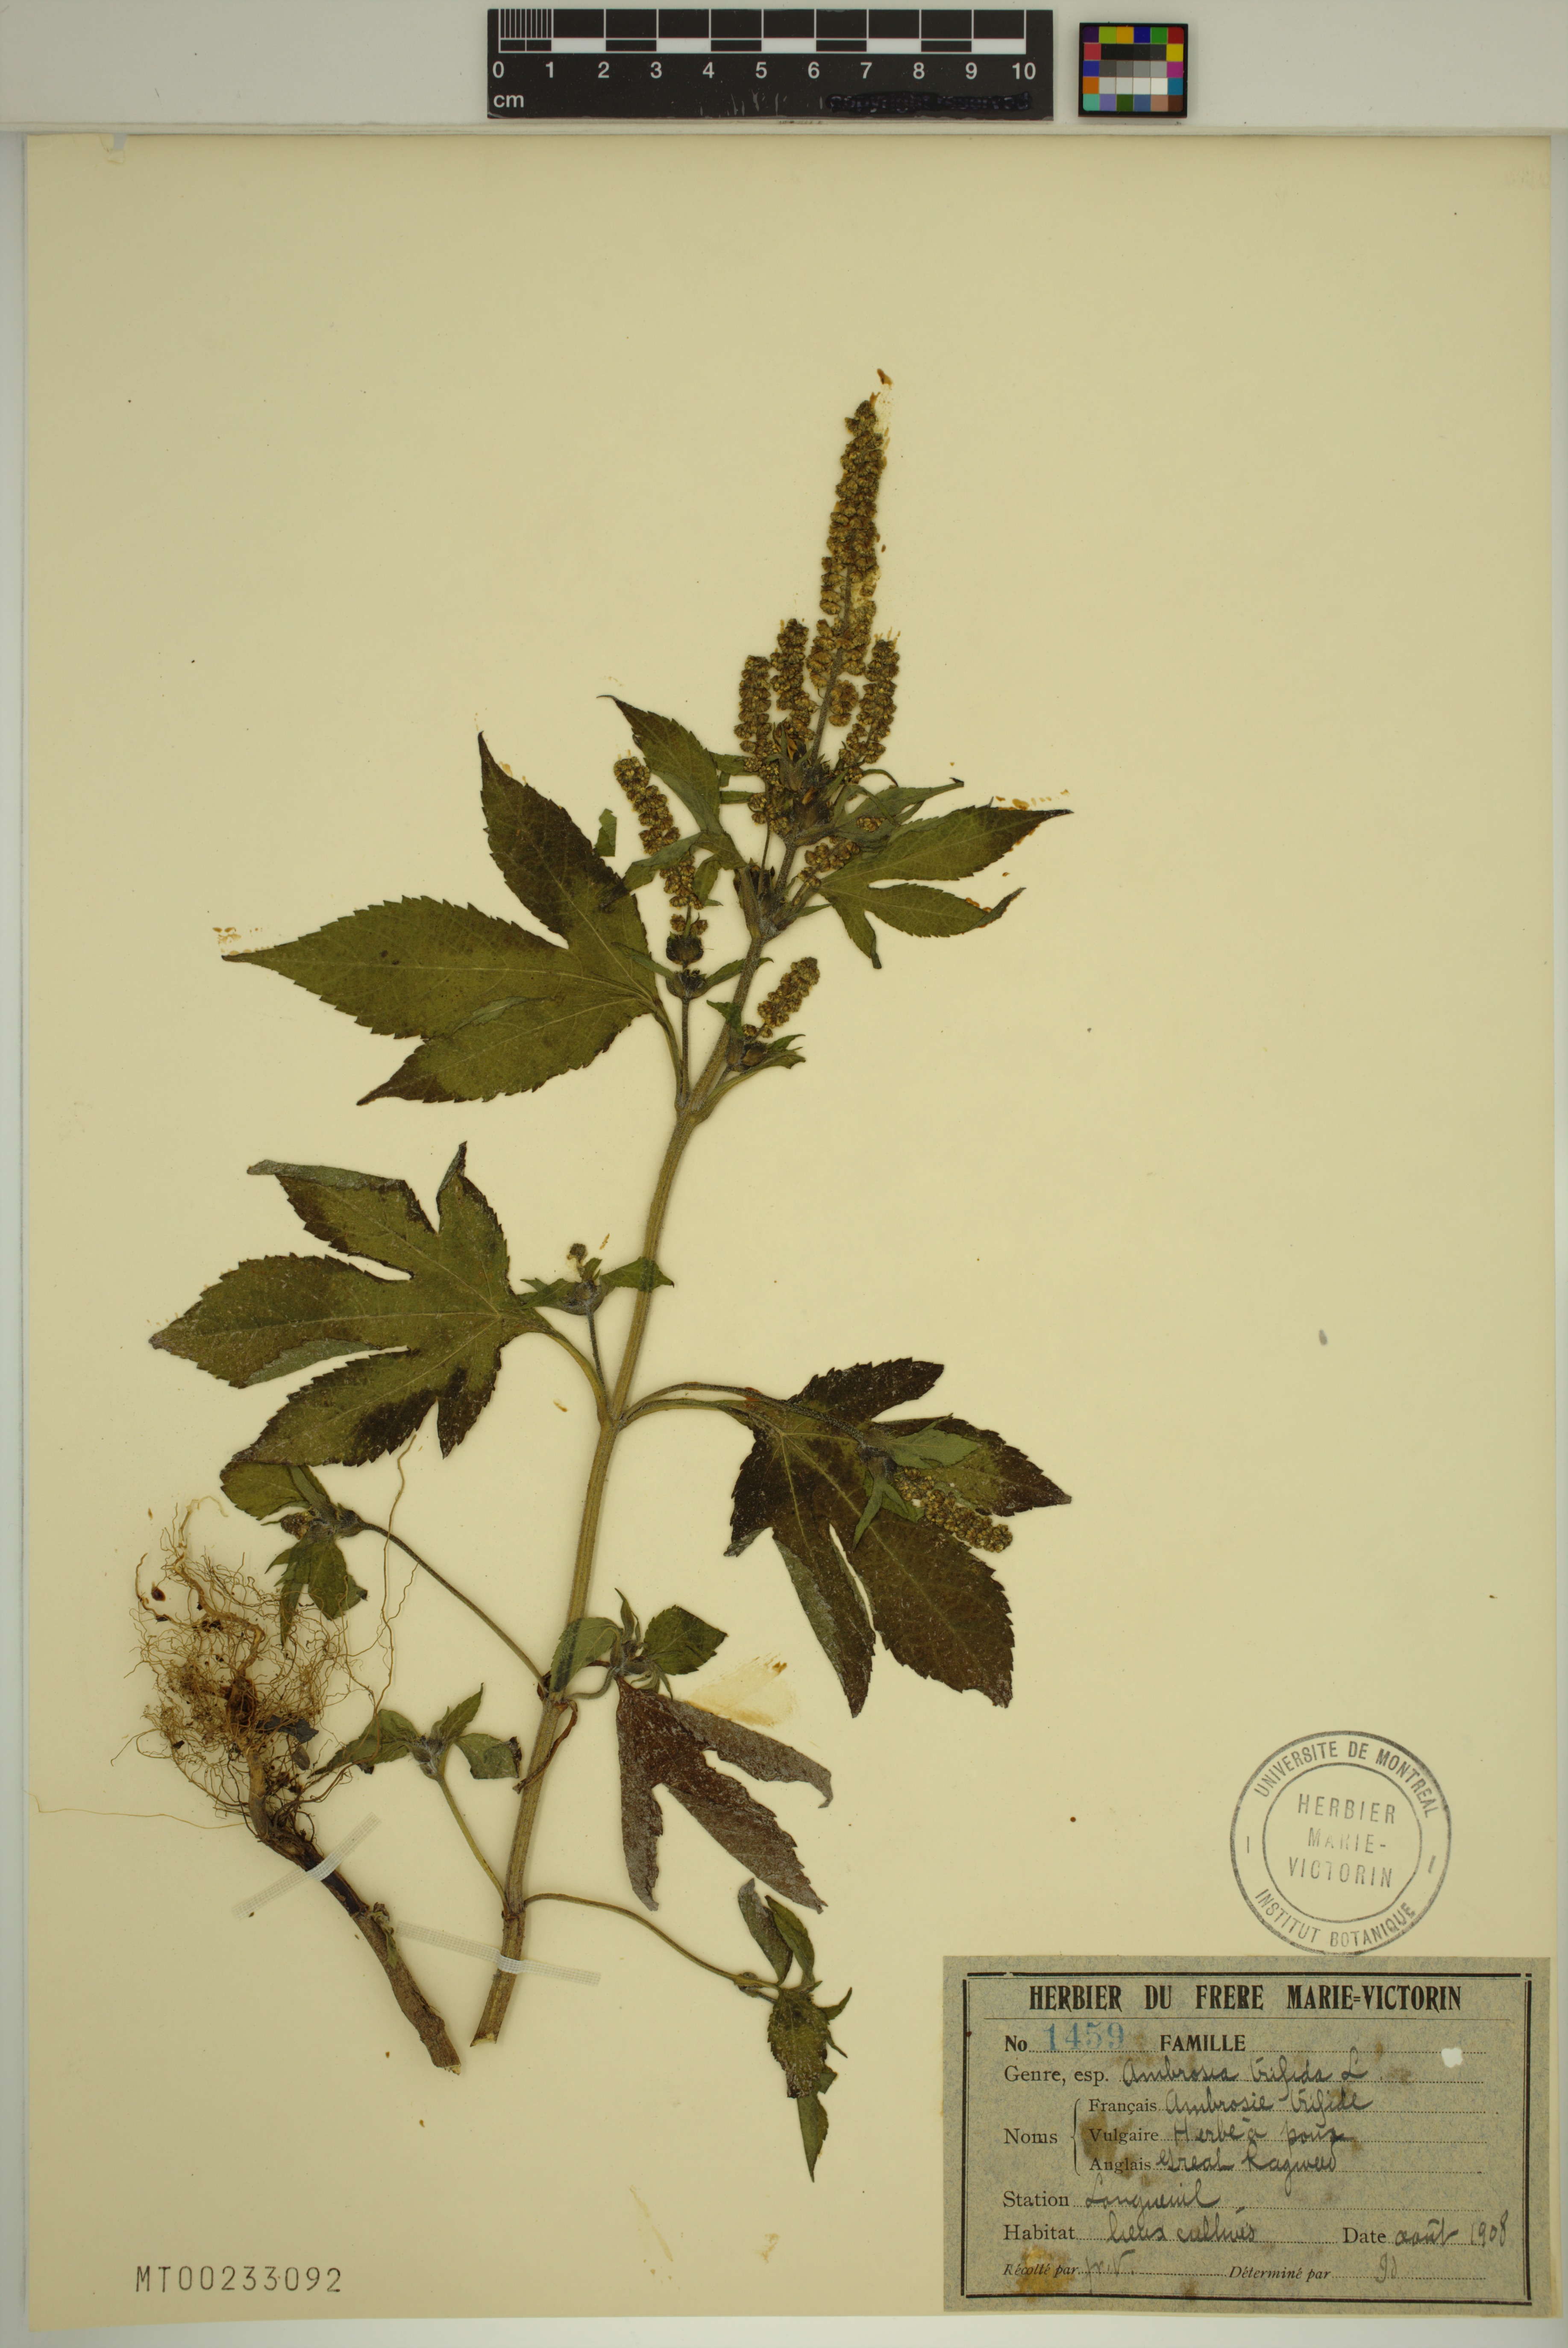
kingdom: Plantae
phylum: Tracheophyta
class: Magnoliopsida
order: Asterales
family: Asteraceae
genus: Ambrosia
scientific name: Ambrosia trifida
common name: Giant ragweed
